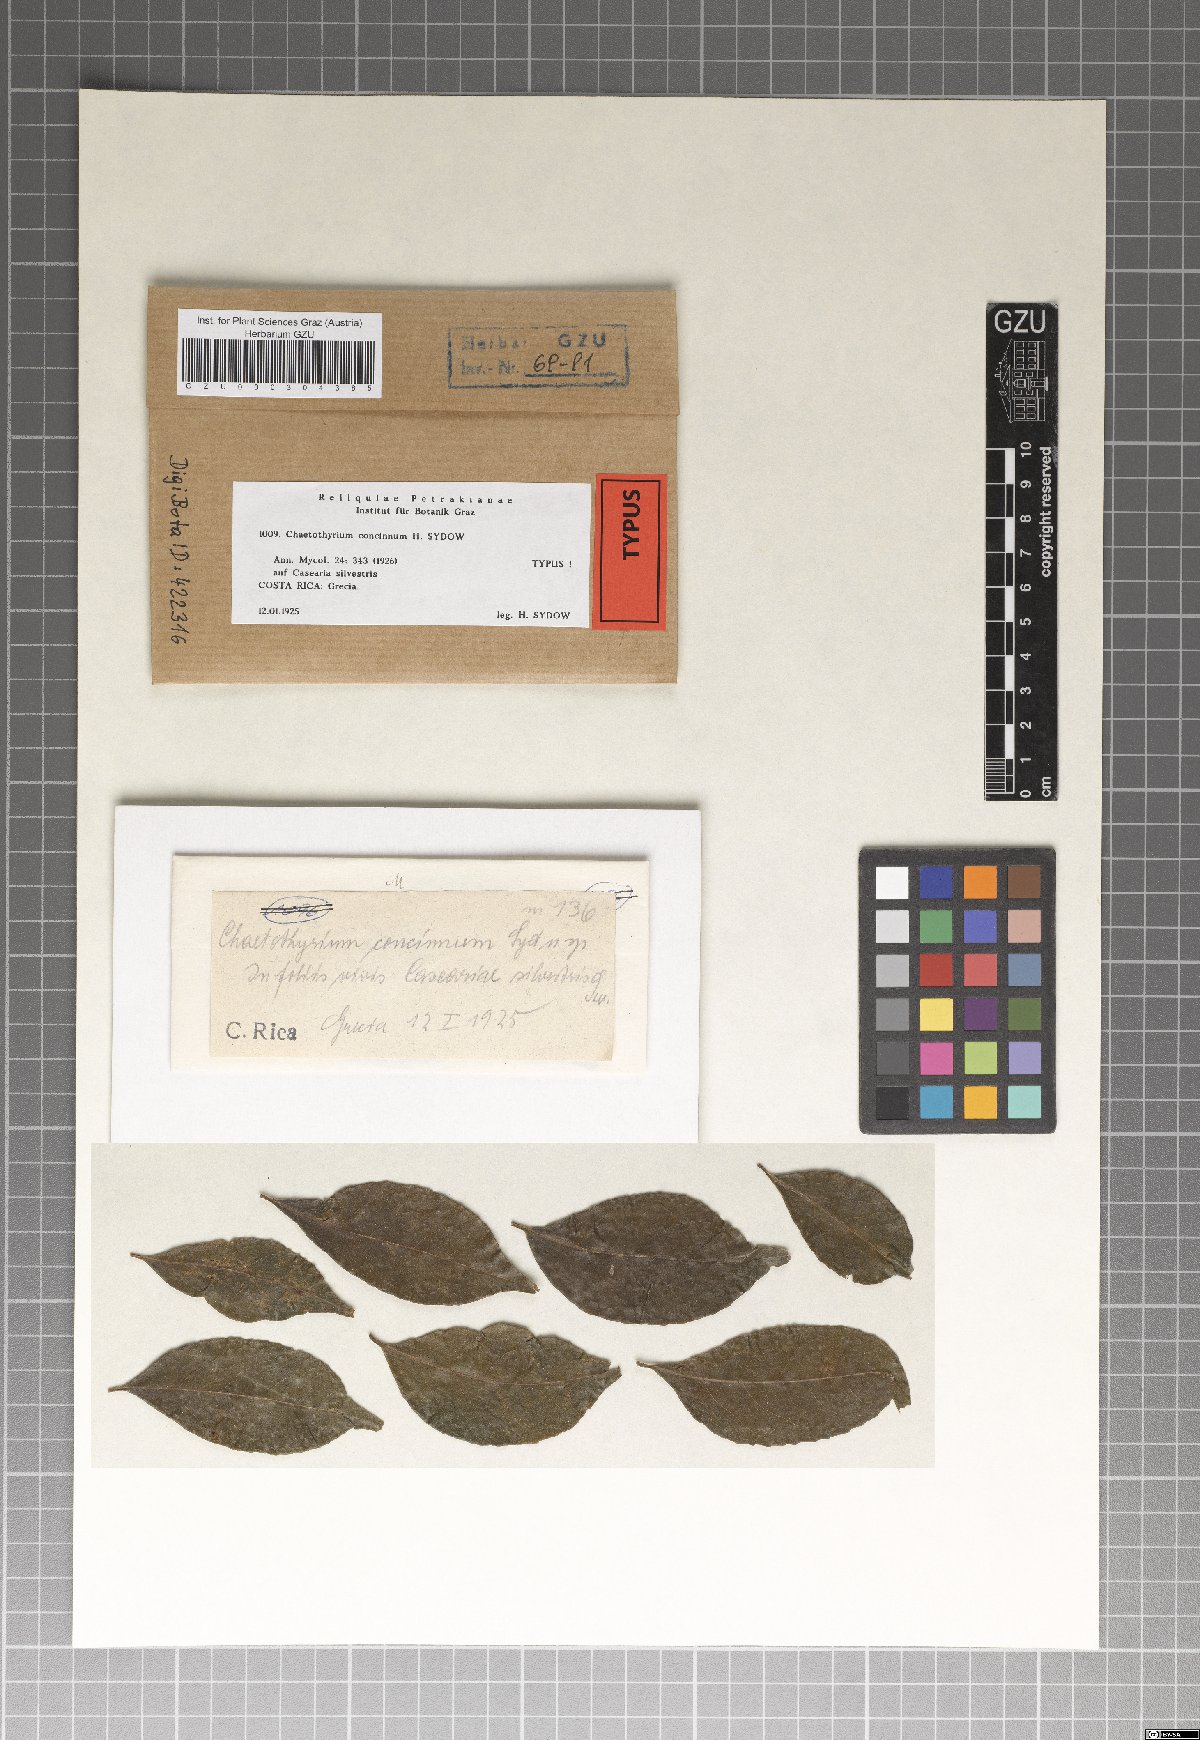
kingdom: Fungi
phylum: Ascomycota
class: Eurotiomycetes
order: Chaetothyriales
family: Chaetothyriaceae
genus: Chaetothyrium
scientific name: Chaetothyrium concinnum
